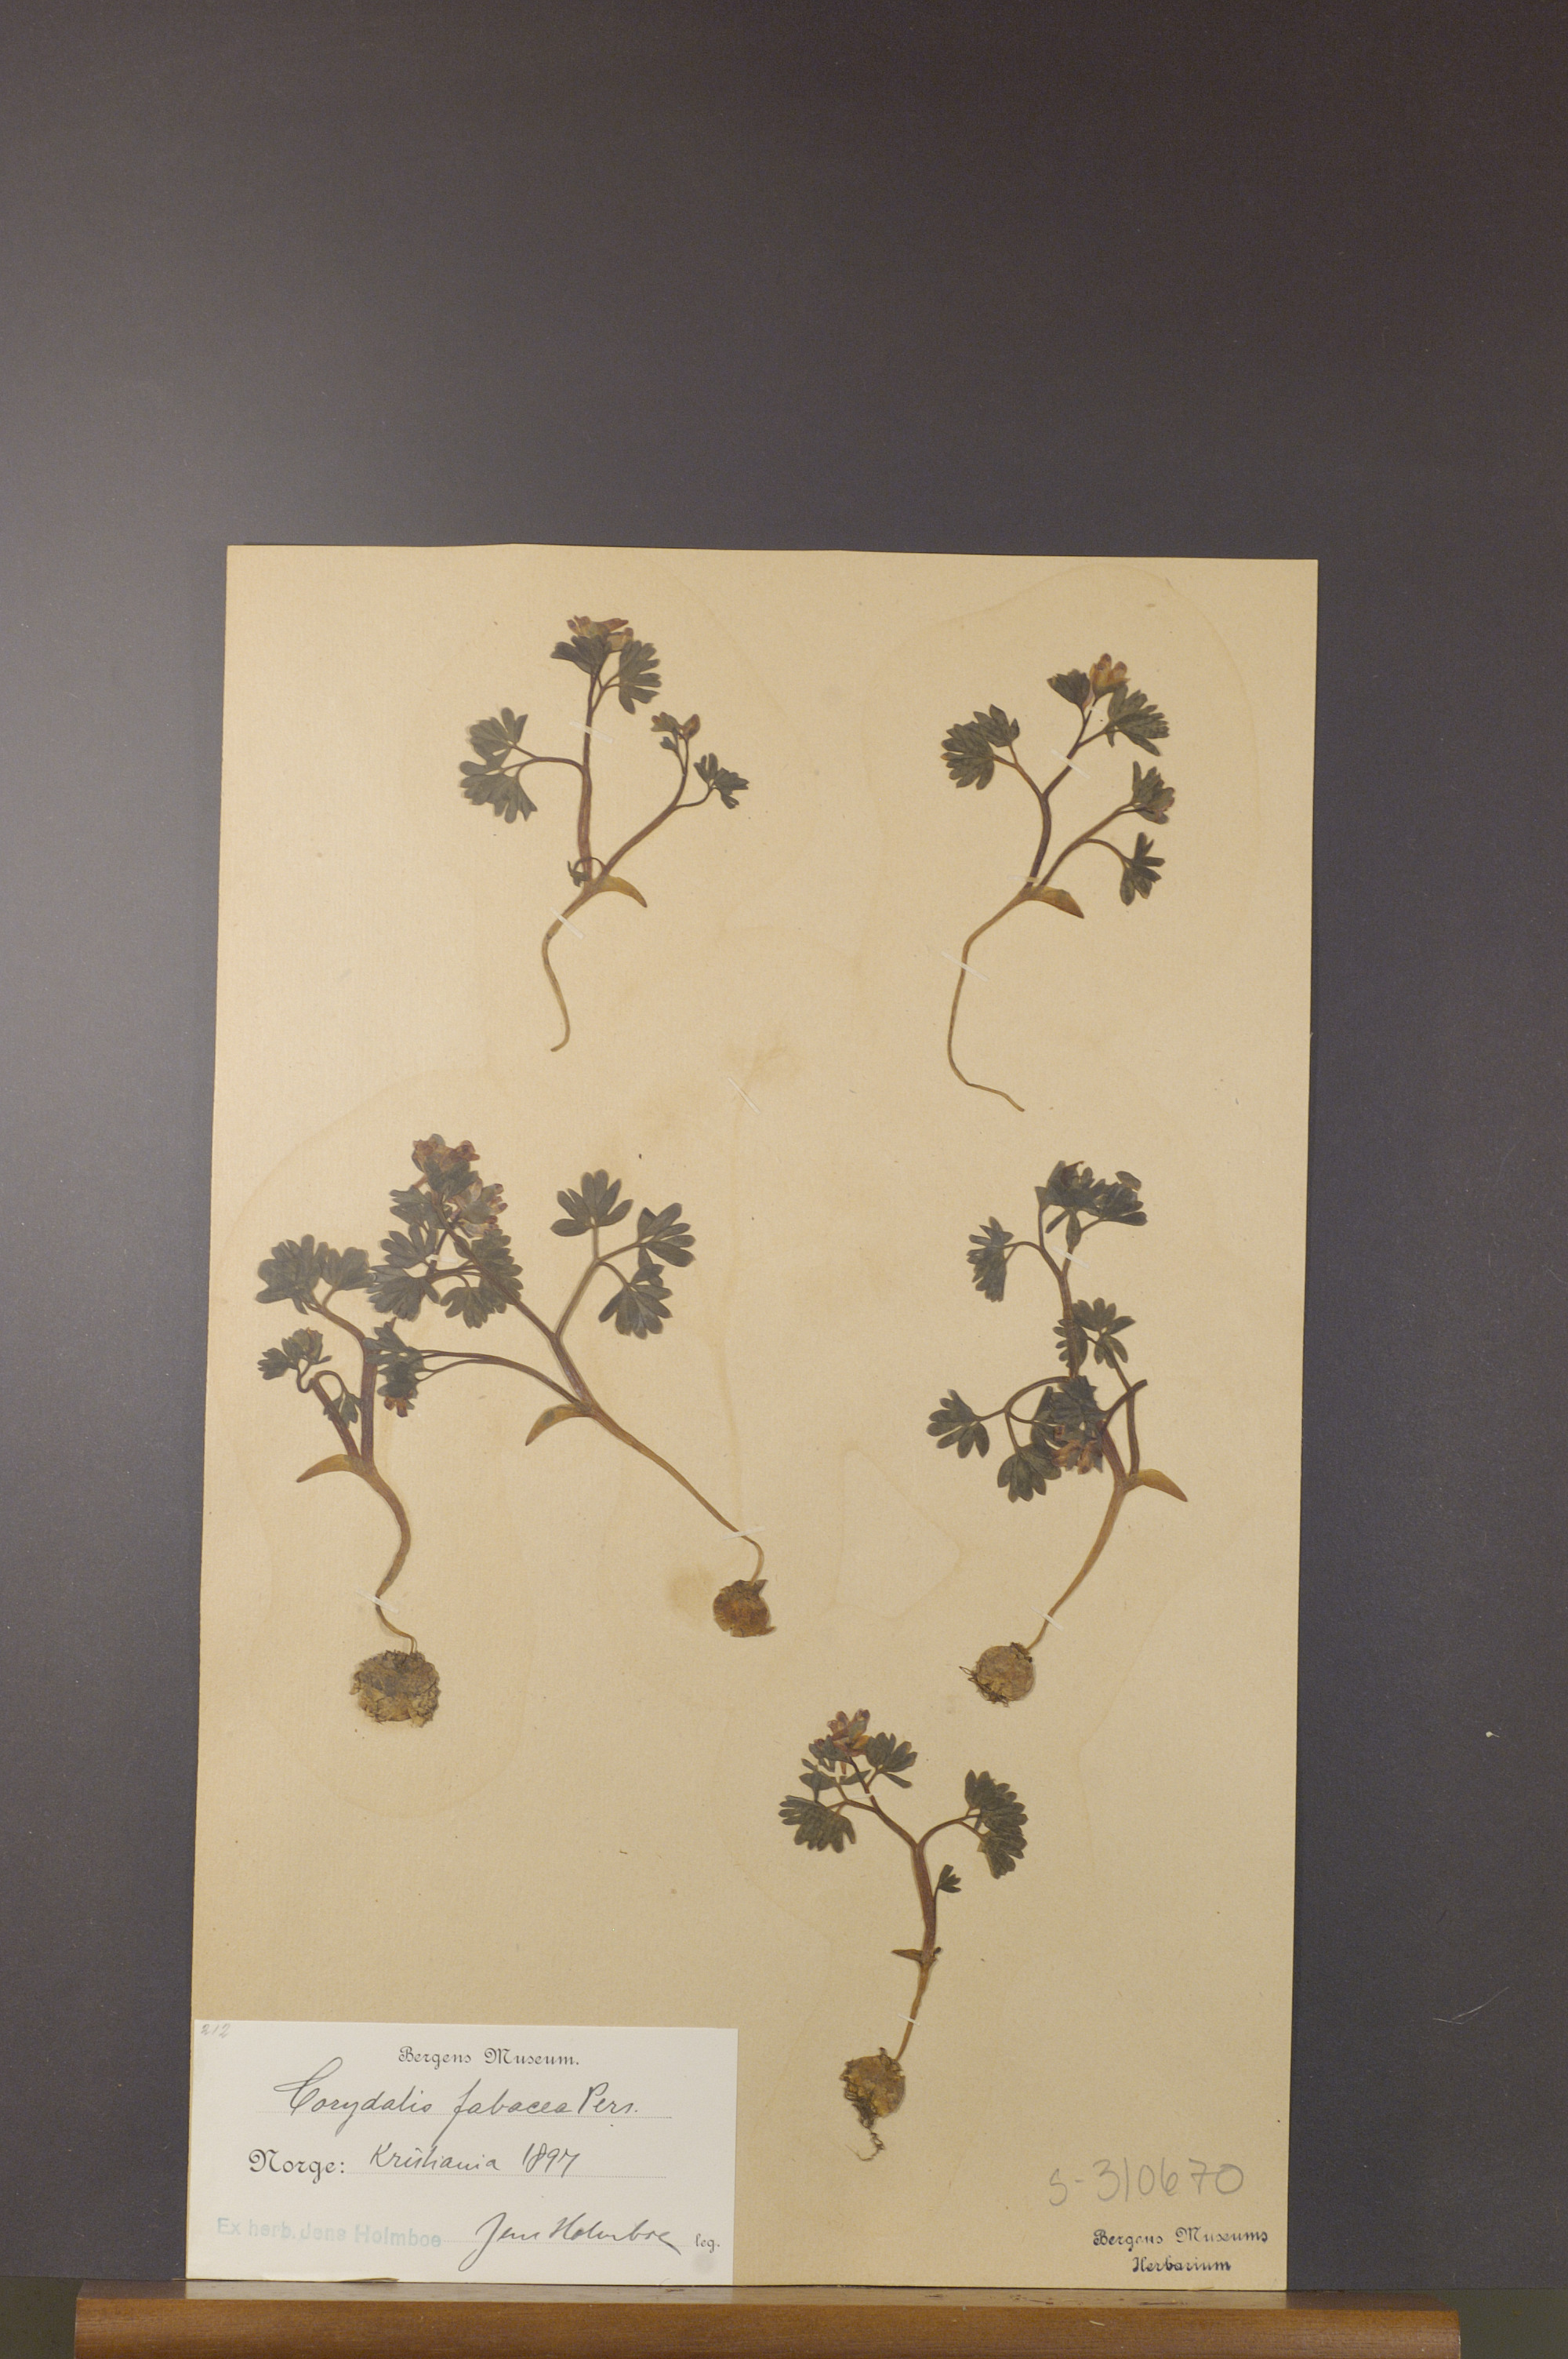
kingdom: Plantae
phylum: Tracheophyta
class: Magnoliopsida
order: Ranunculales
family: Papaveraceae
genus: Corydalis
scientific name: Corydalis intermedia
